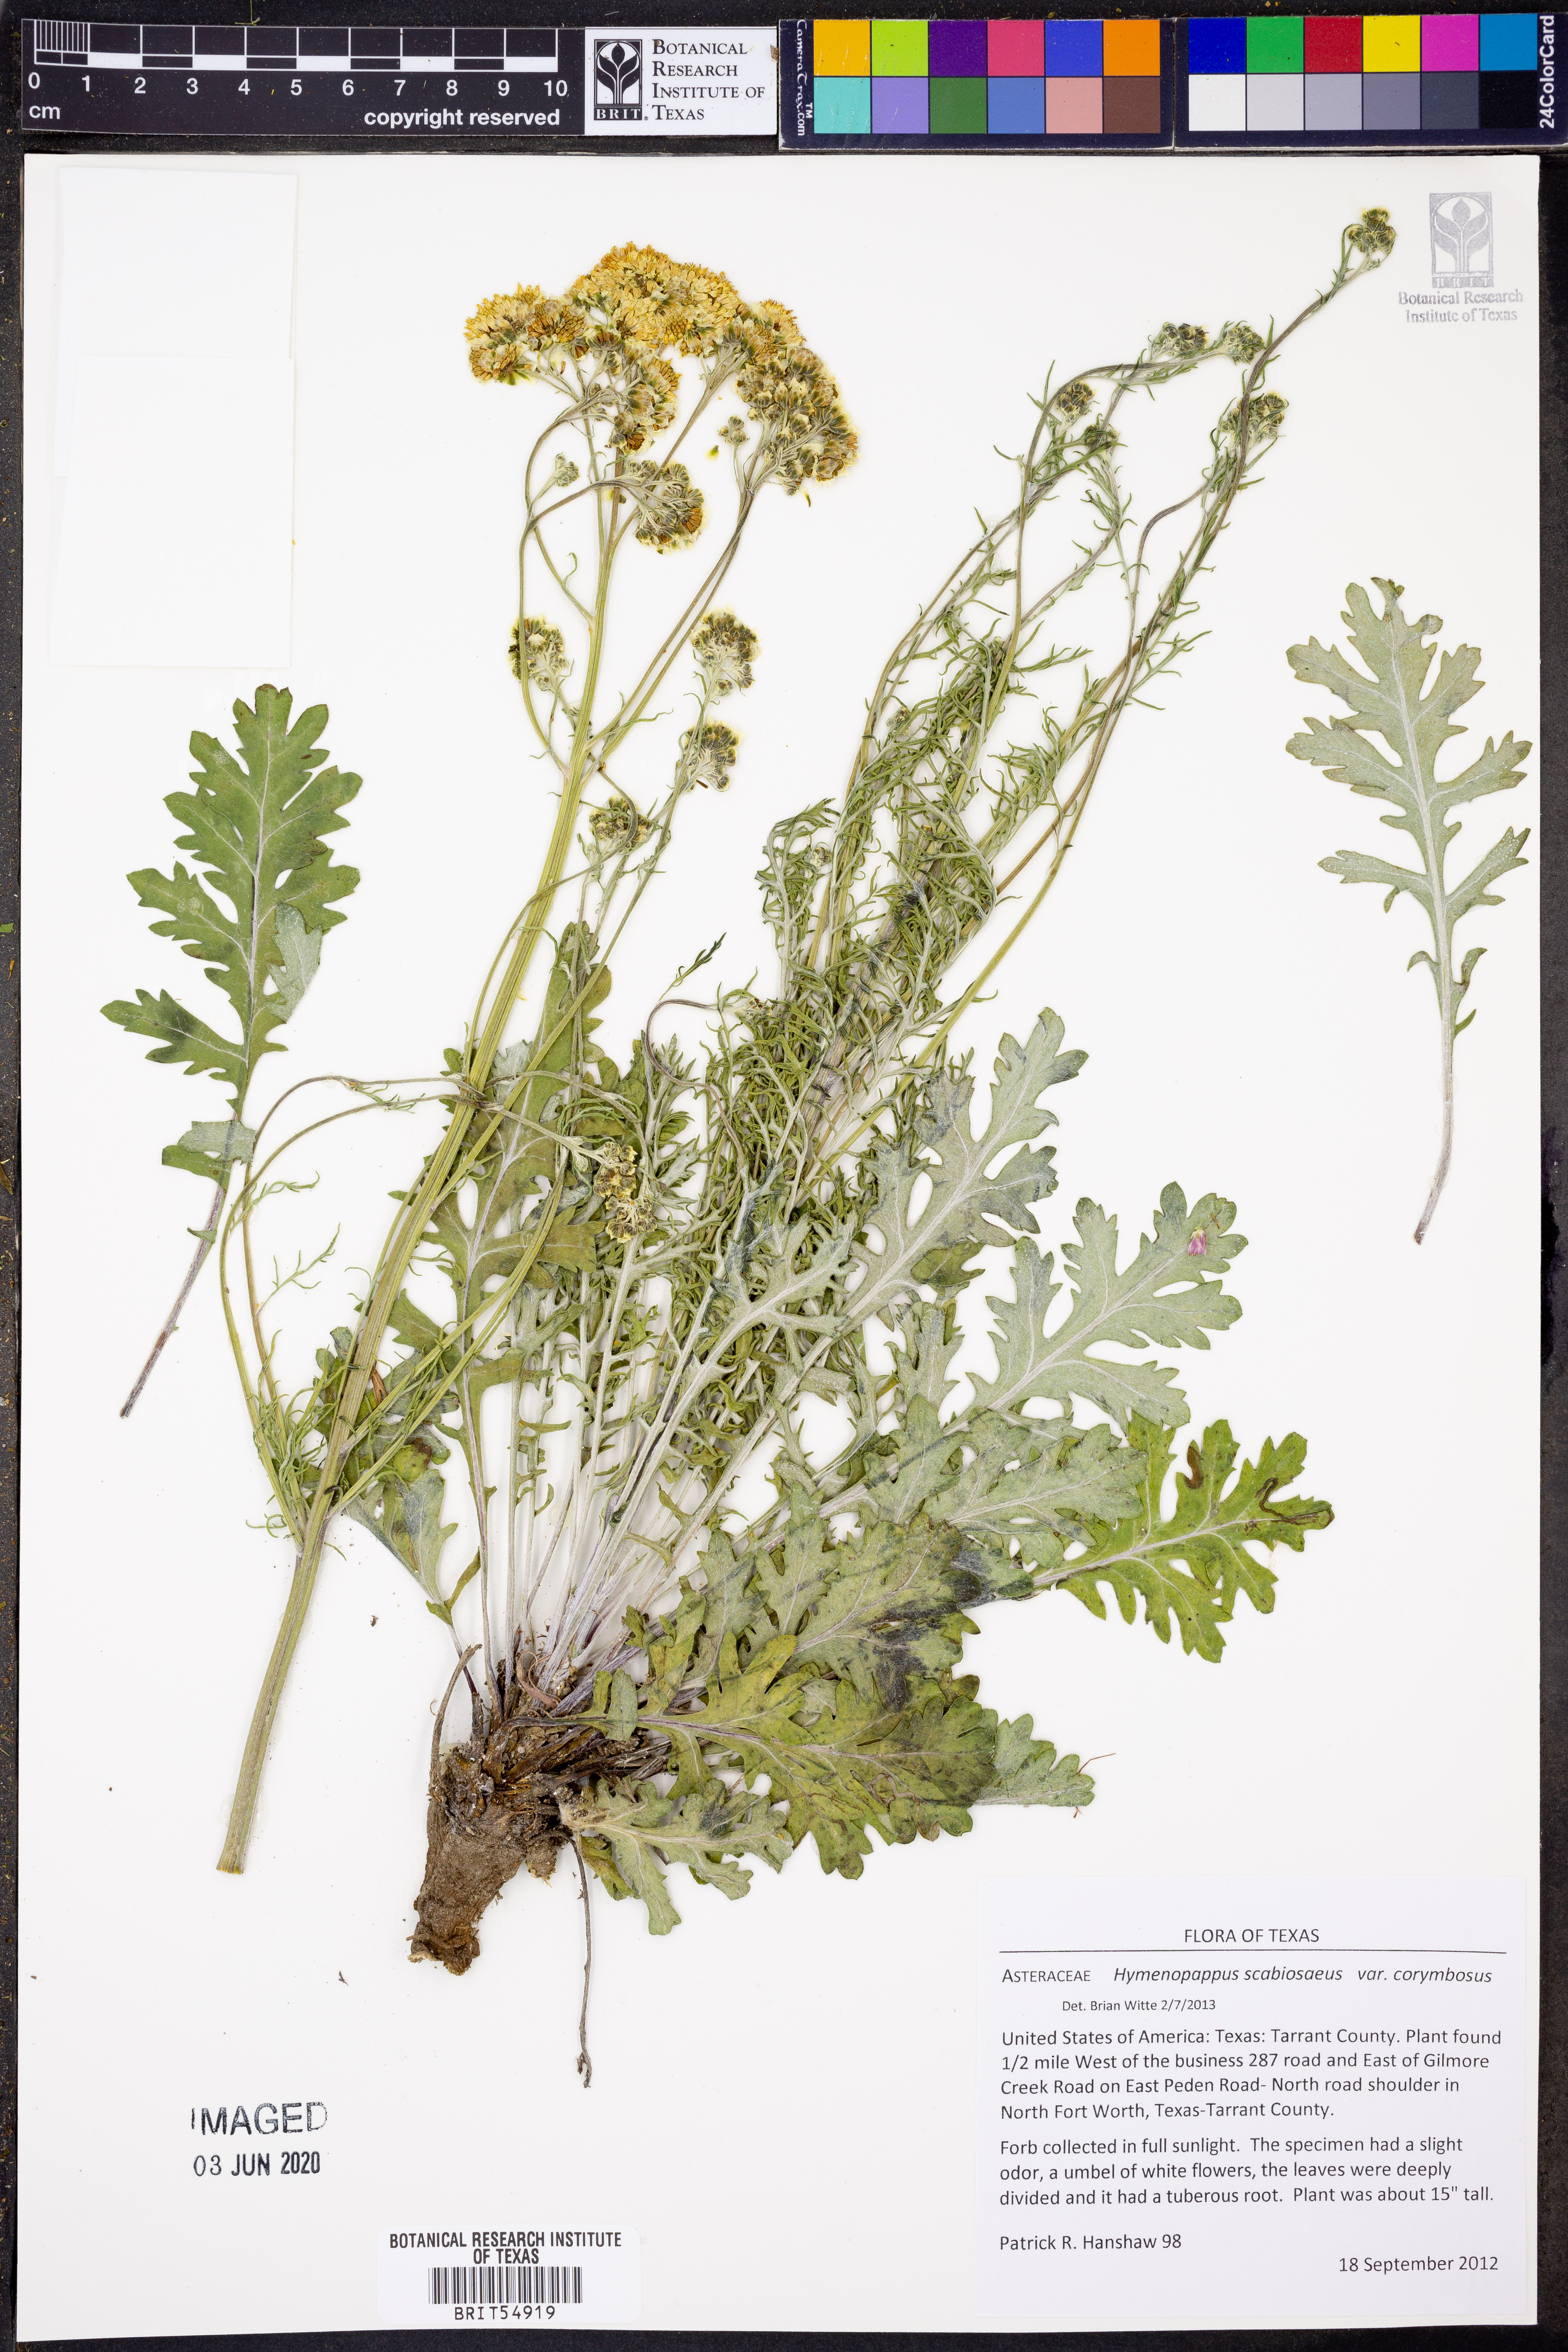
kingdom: Plantae
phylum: Tracheophyta
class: Magnoliopsida
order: Asterales
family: Asteraceae
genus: Hymenopappus
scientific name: Hymenopappus scabiosaeus
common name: Carolina woollywhite
